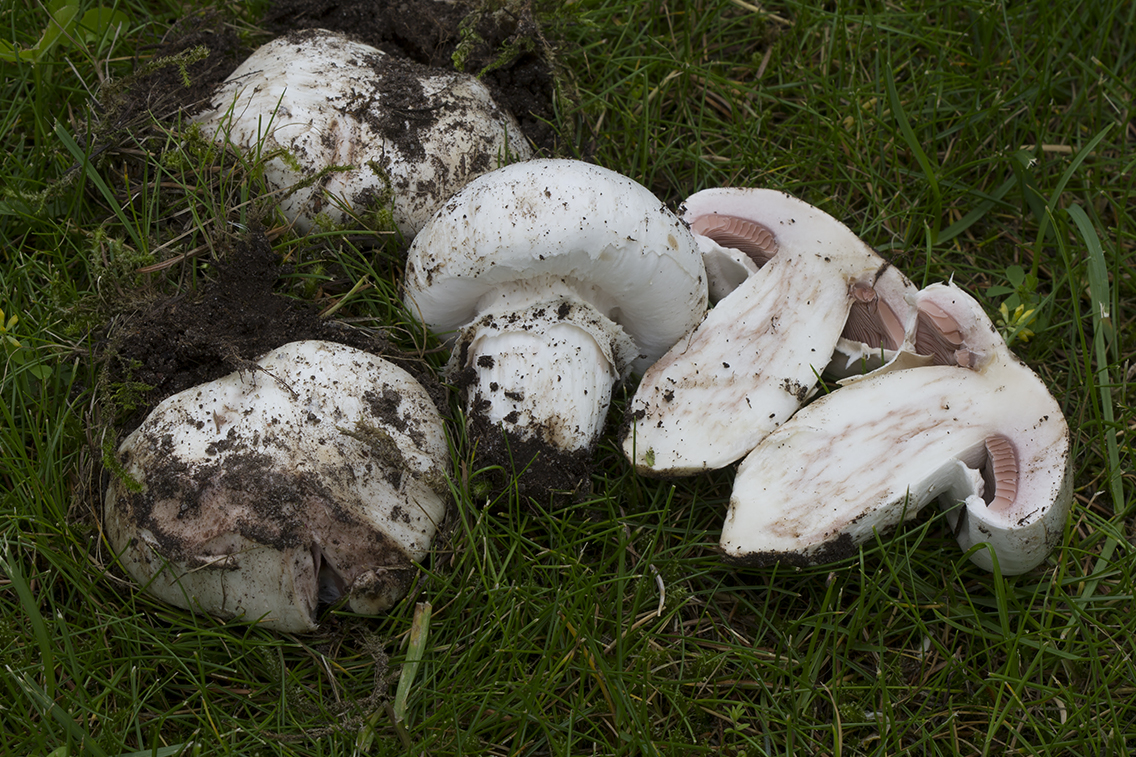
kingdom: Fungi
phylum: Basidiomycota
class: Agaricomycetes
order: Agaricales
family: Agaricaceae
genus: Agaricus
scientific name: Agaricus bernardii
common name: strandengs-champignon
